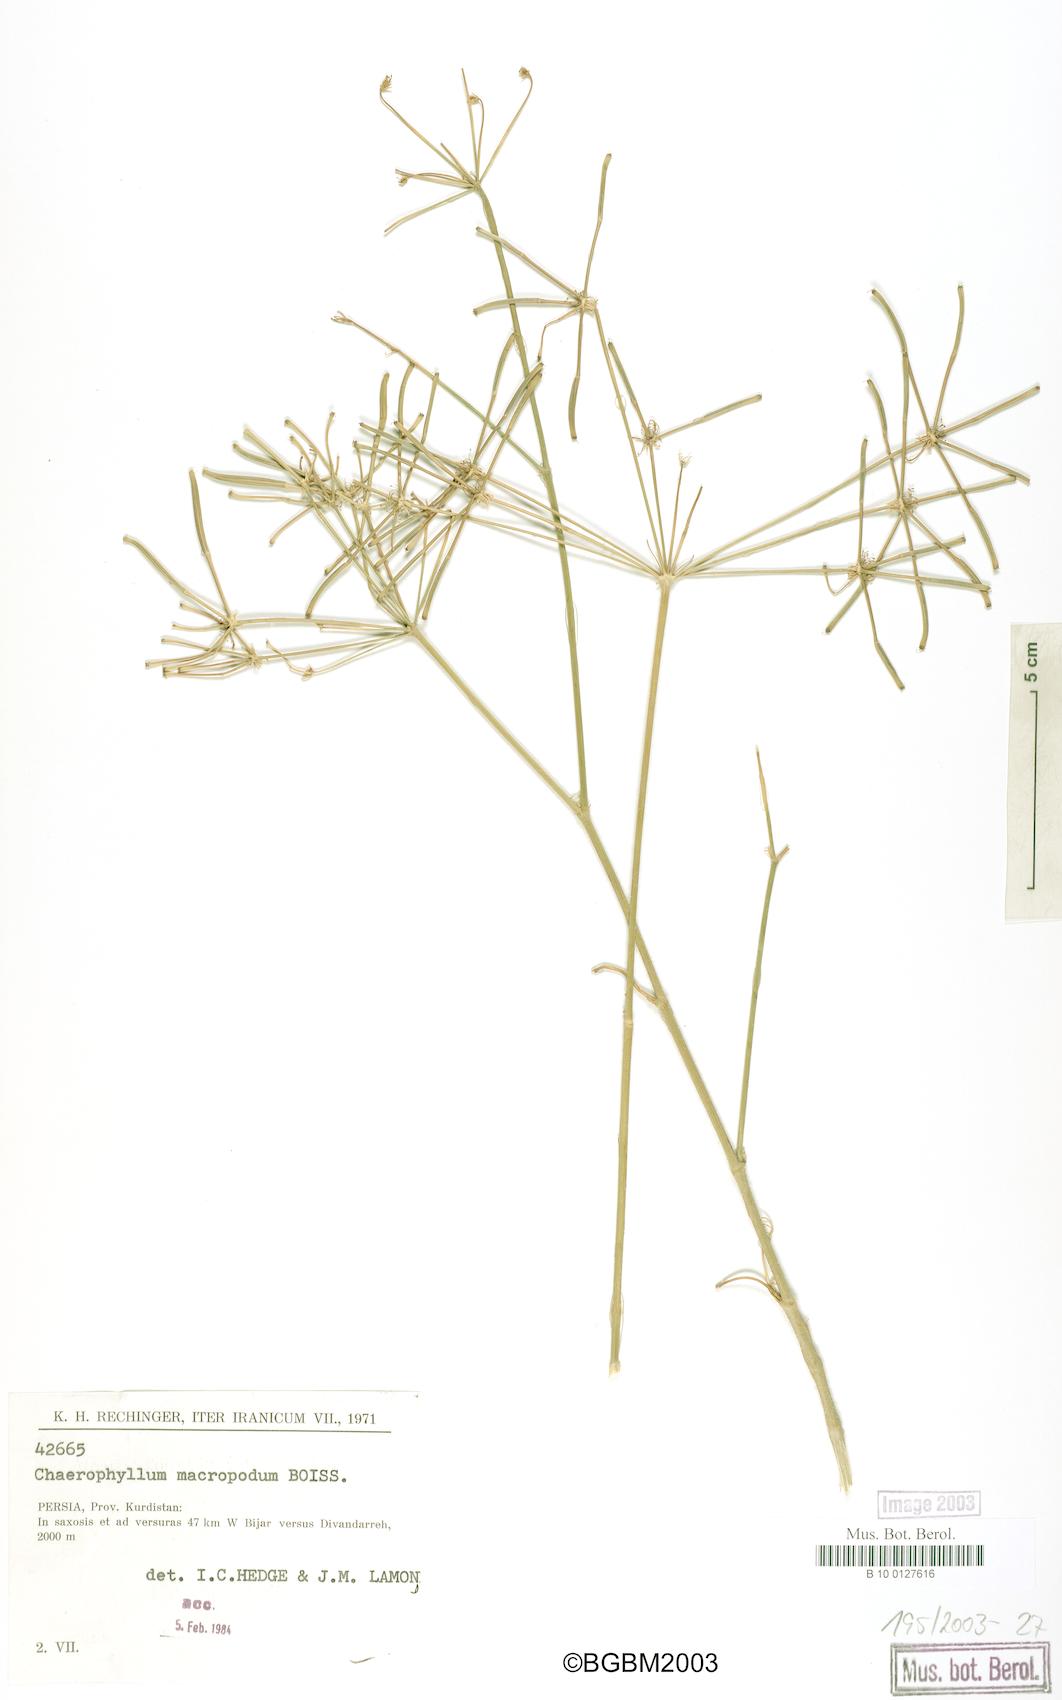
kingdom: Plantae
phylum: Tracheophyta
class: Magnoliopsida
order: Apiales
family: Apiaceae
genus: Chaerophyllum
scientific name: Chaerophyllum macropodum
